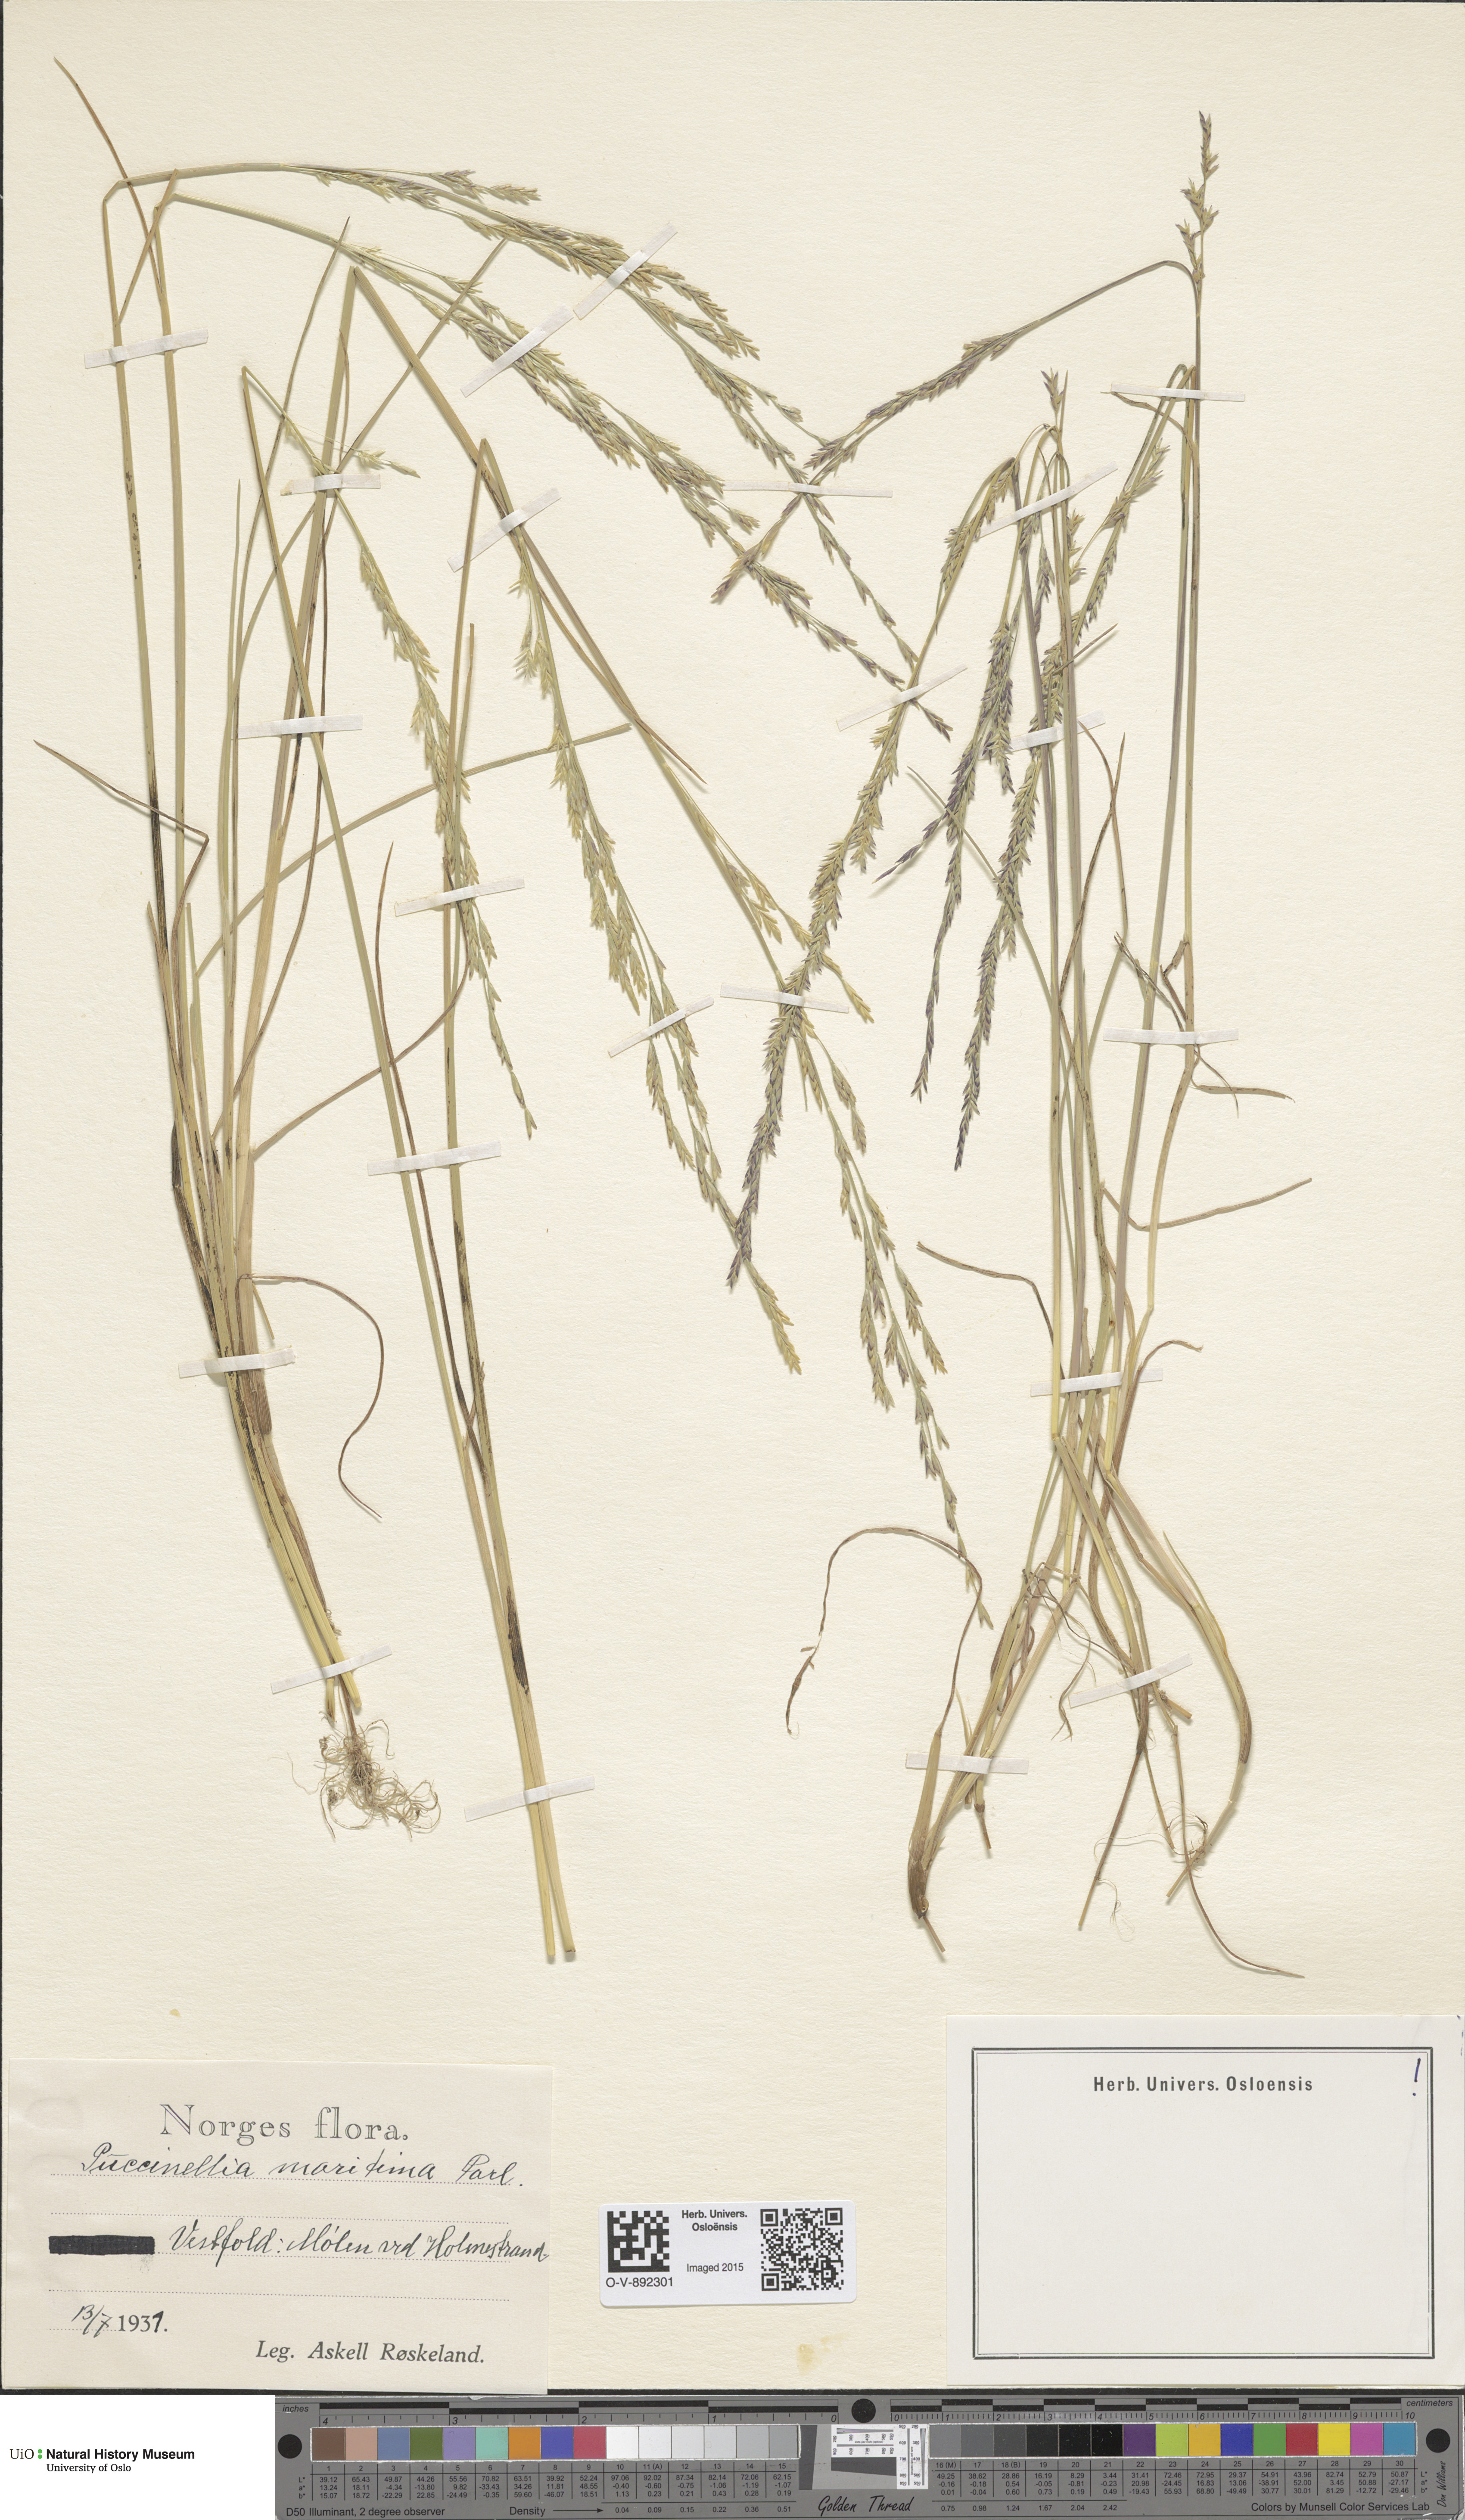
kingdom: Plantae
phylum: Tracheophyta
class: Liliopsida
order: Poales
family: Poaceae
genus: Puccinellia
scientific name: Puccinellia maritima
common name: Common saltmarsh grass
